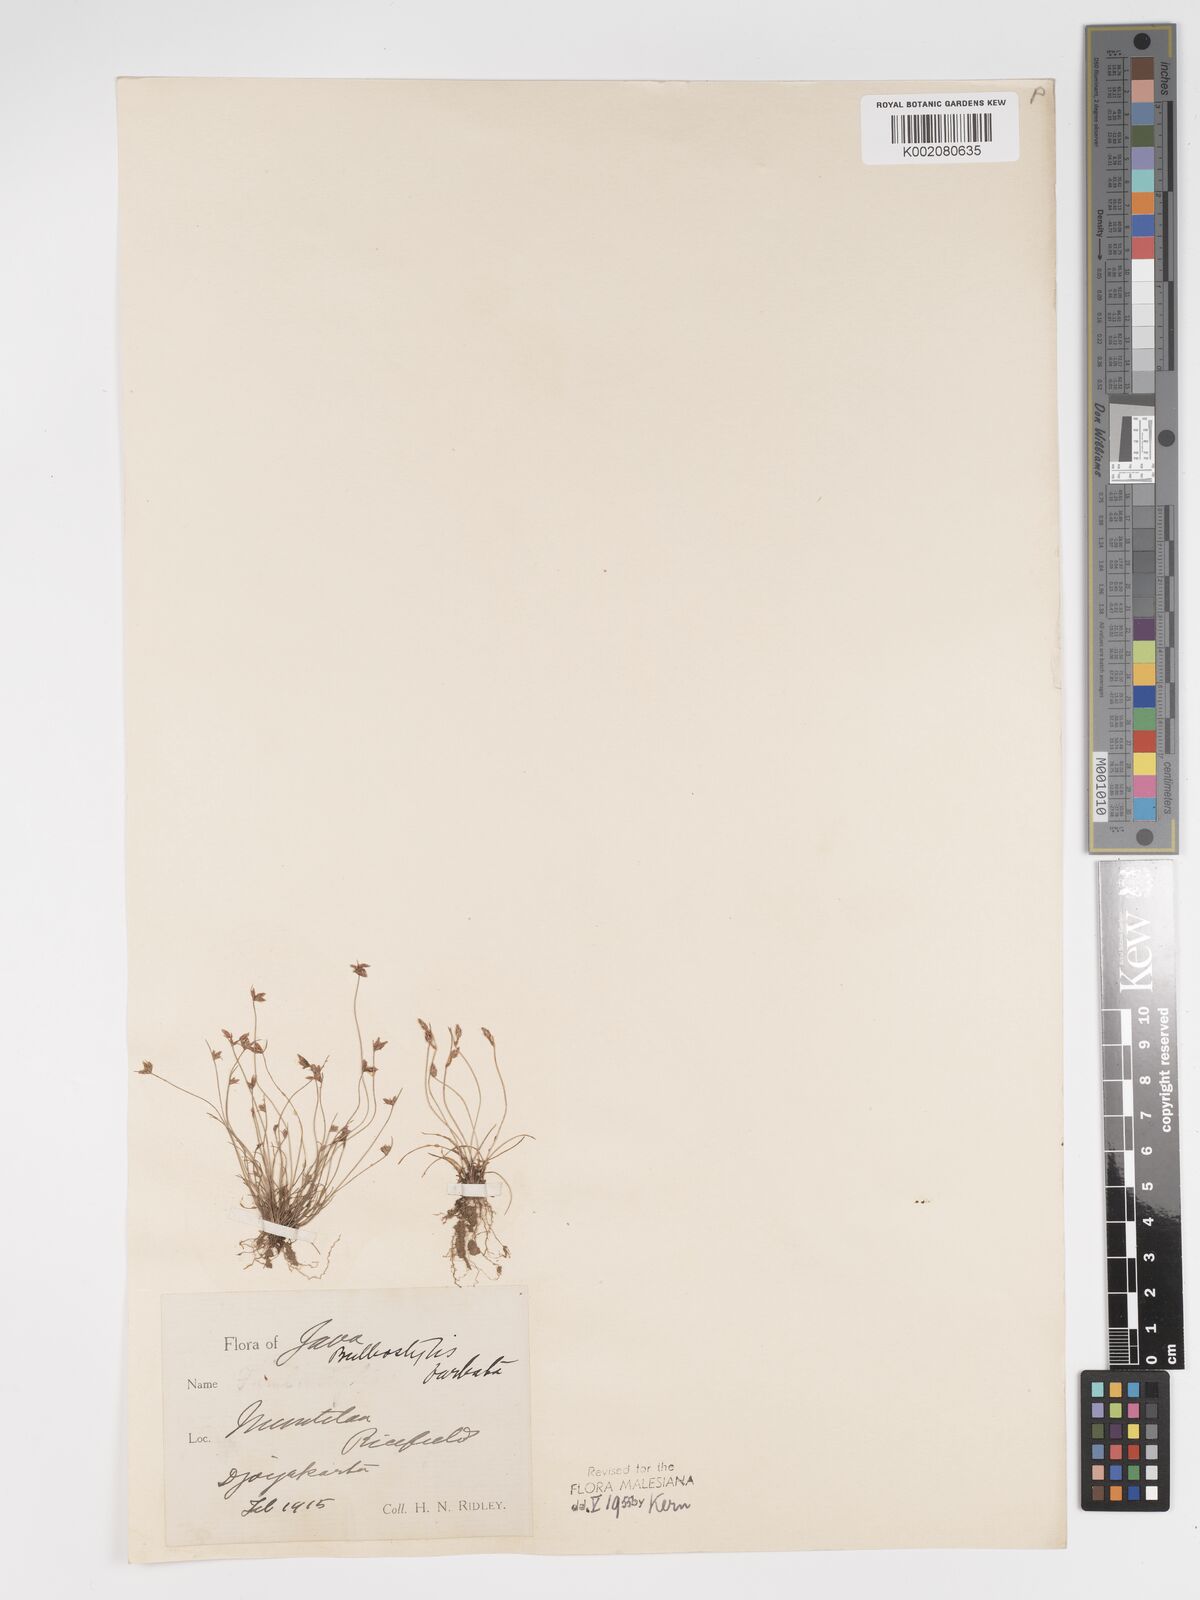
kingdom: Plantae
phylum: Tracheophyta
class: Liliopsida
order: Poales
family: Cyperaceae
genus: Bulbostylis
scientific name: Bulbostylis barbata
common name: Watergrass
